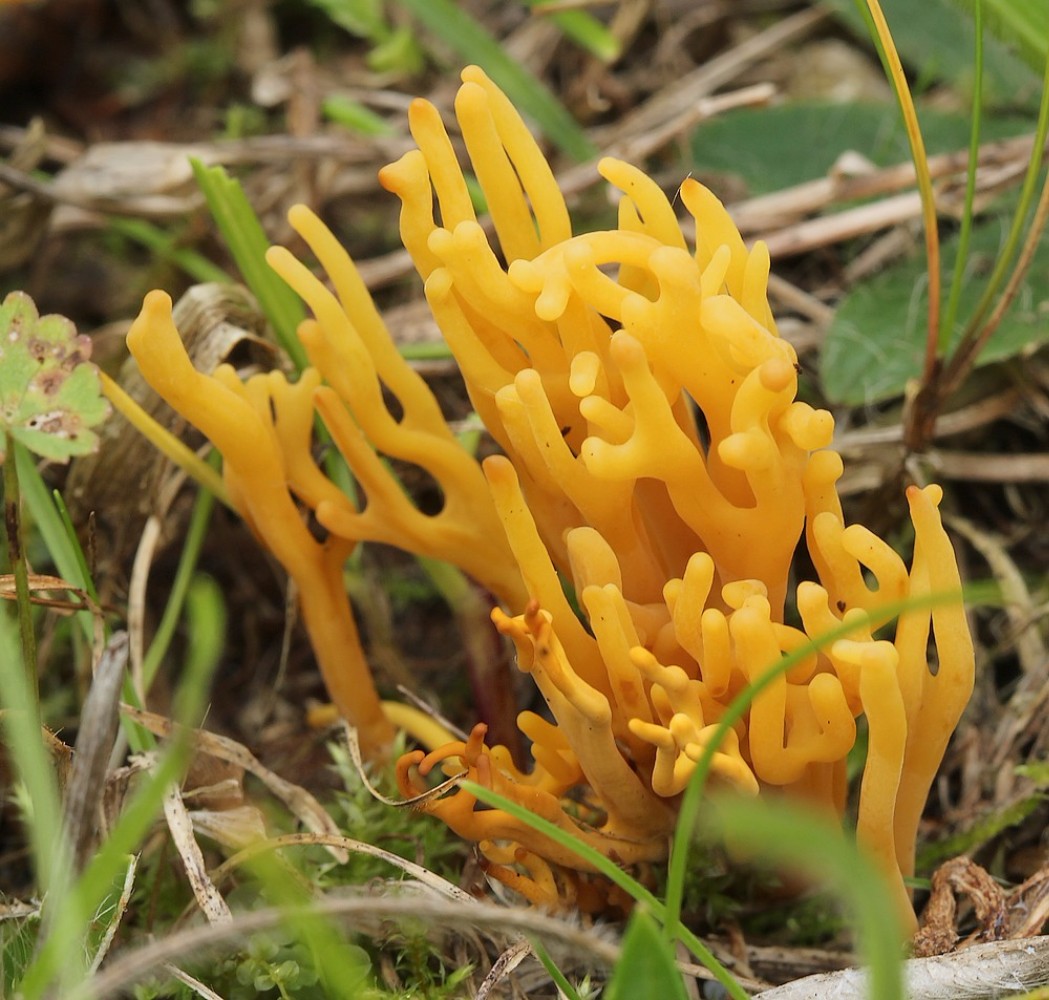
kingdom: Fungi
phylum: Basidiomycota
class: Agaricomycetes
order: Agaricales
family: Clavariaceae
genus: Clavulinopsis
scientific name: Clavulinopsis corniculata
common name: eng-køllesvamp
